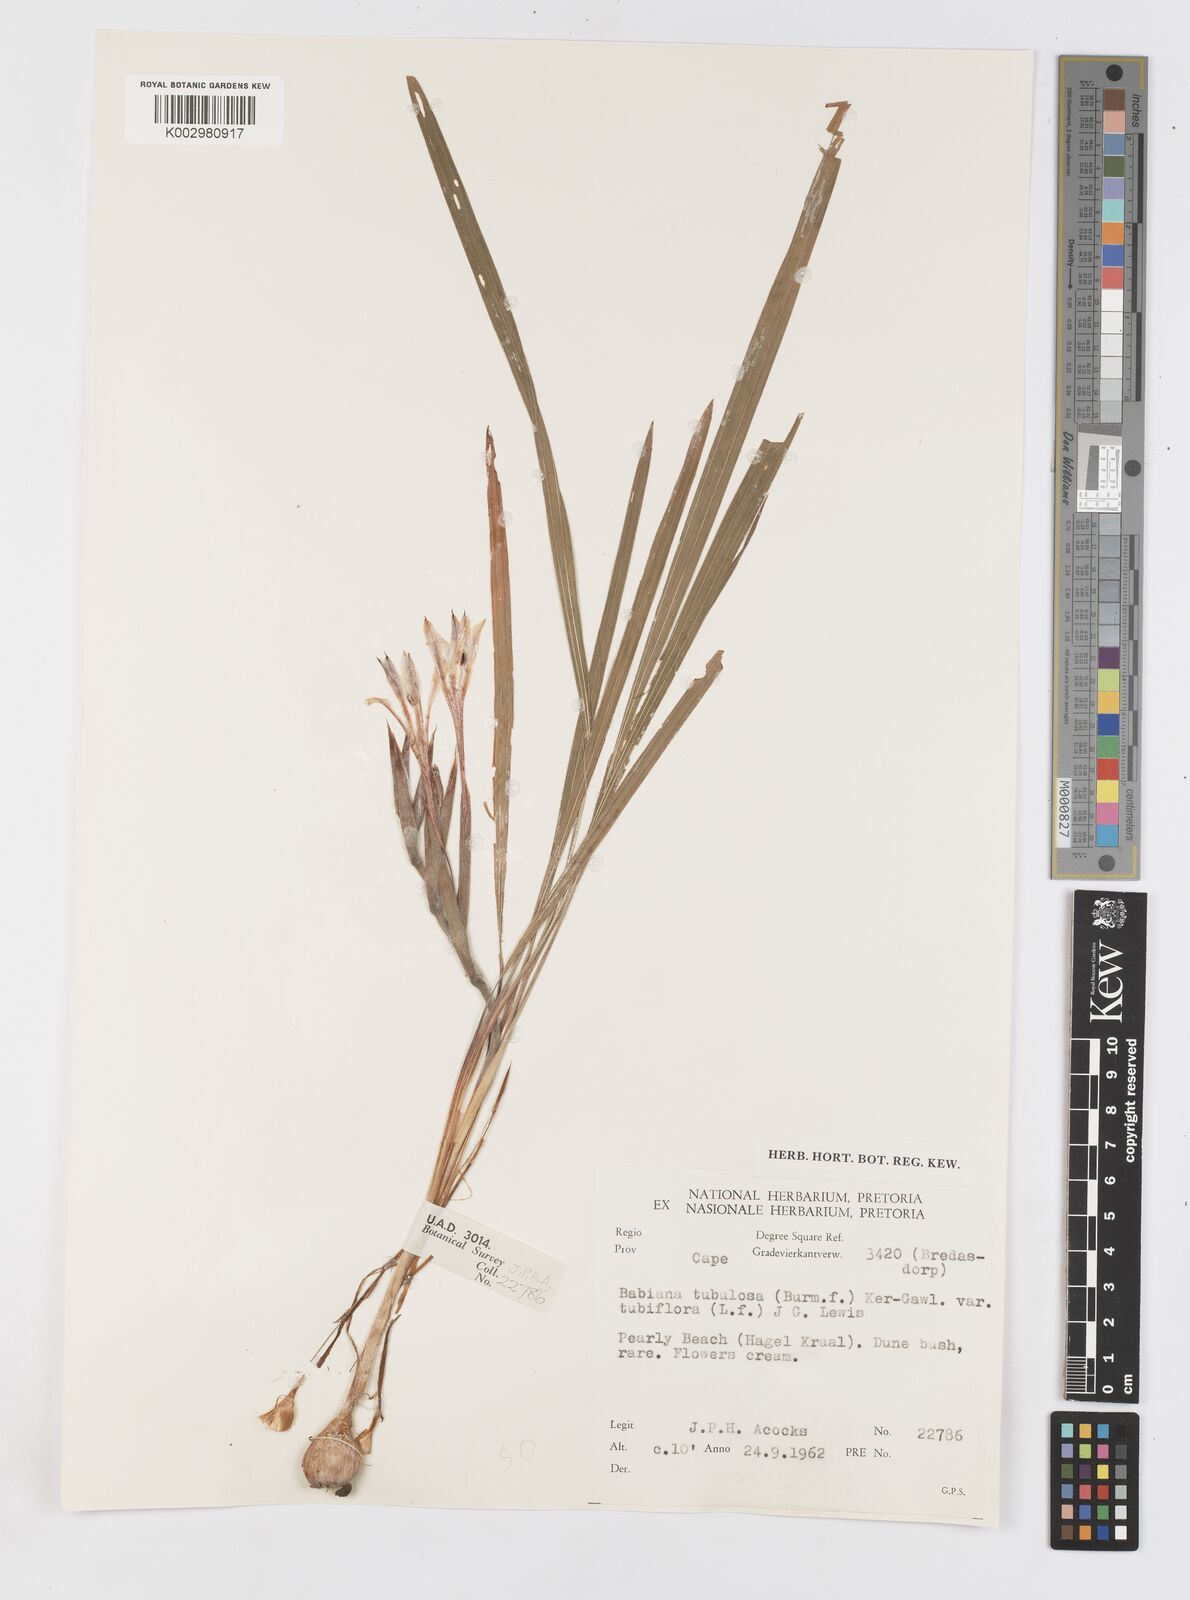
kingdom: Plantae
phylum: Tracheophyta
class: Liliopsida
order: Asparagales
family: Iridaceae
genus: Babiana
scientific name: Babiana tubiflora
